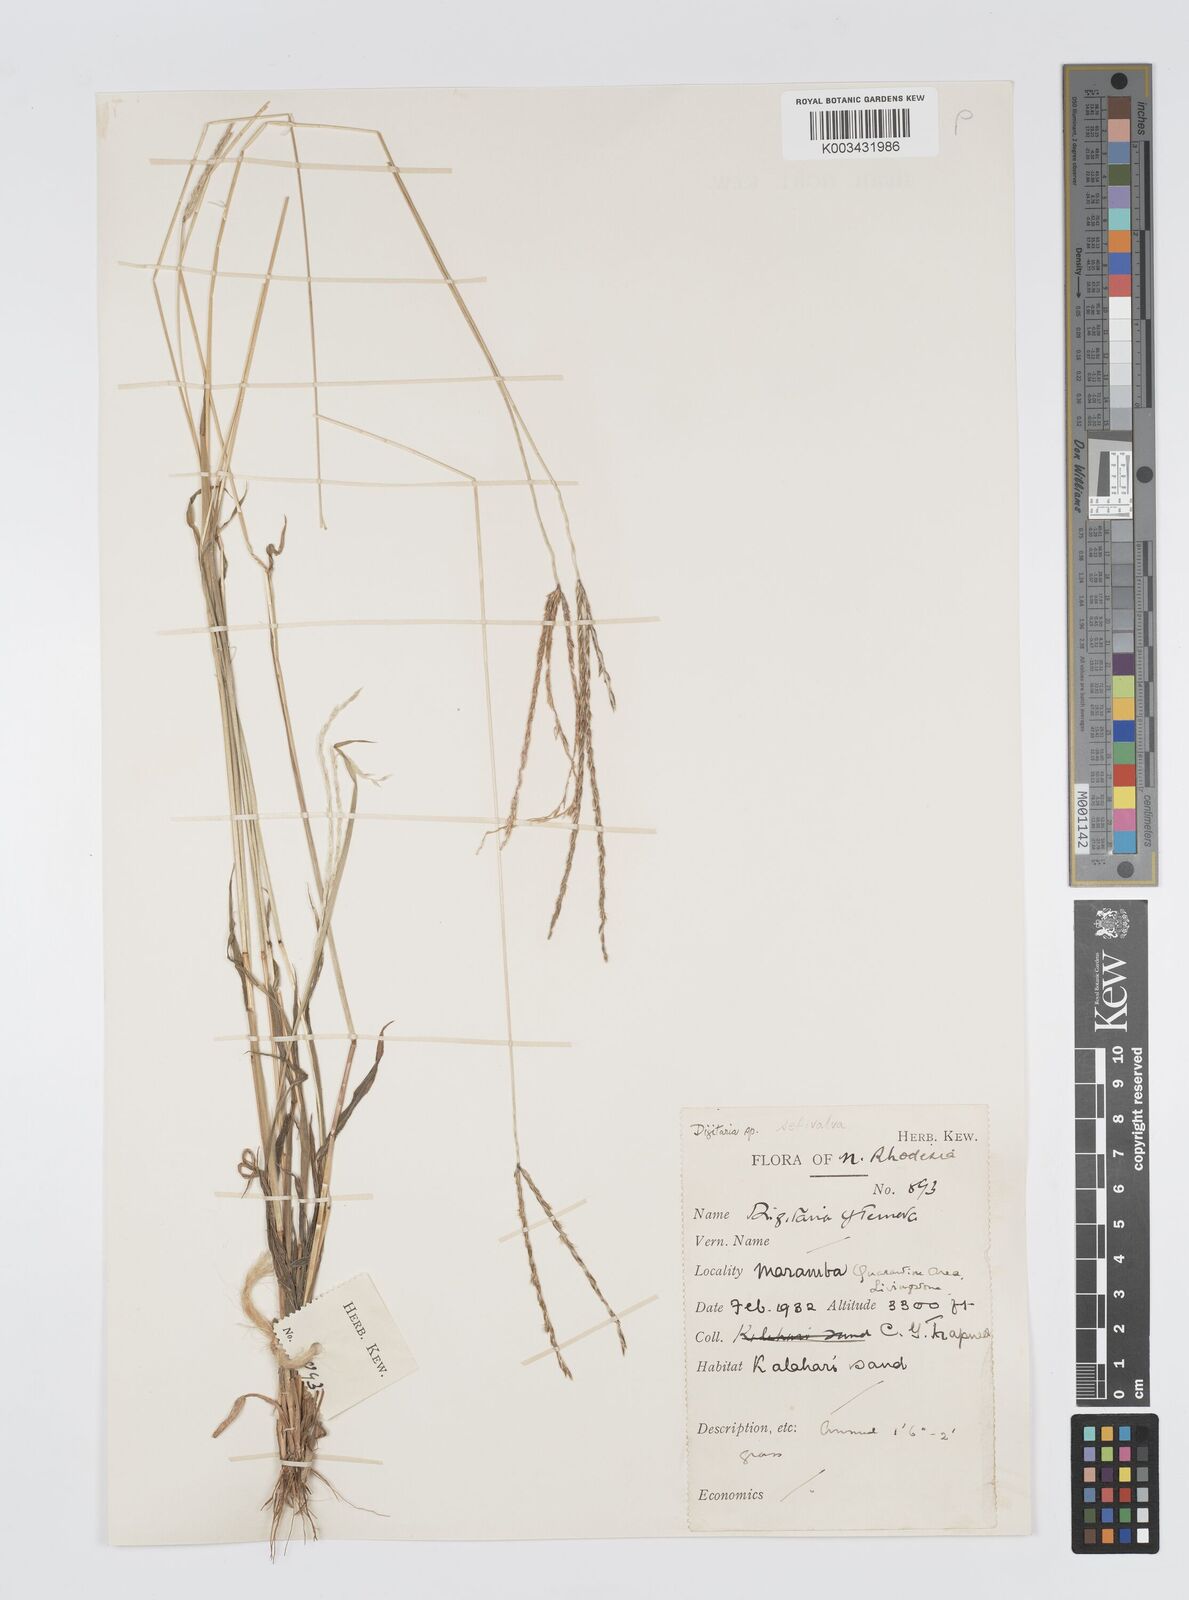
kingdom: Plantae
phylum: Tracheophyta
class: Liliopsida
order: Poales
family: Poaceae
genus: Digitaria
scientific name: Digitaria milanjiana
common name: Madagascar crabgrass
